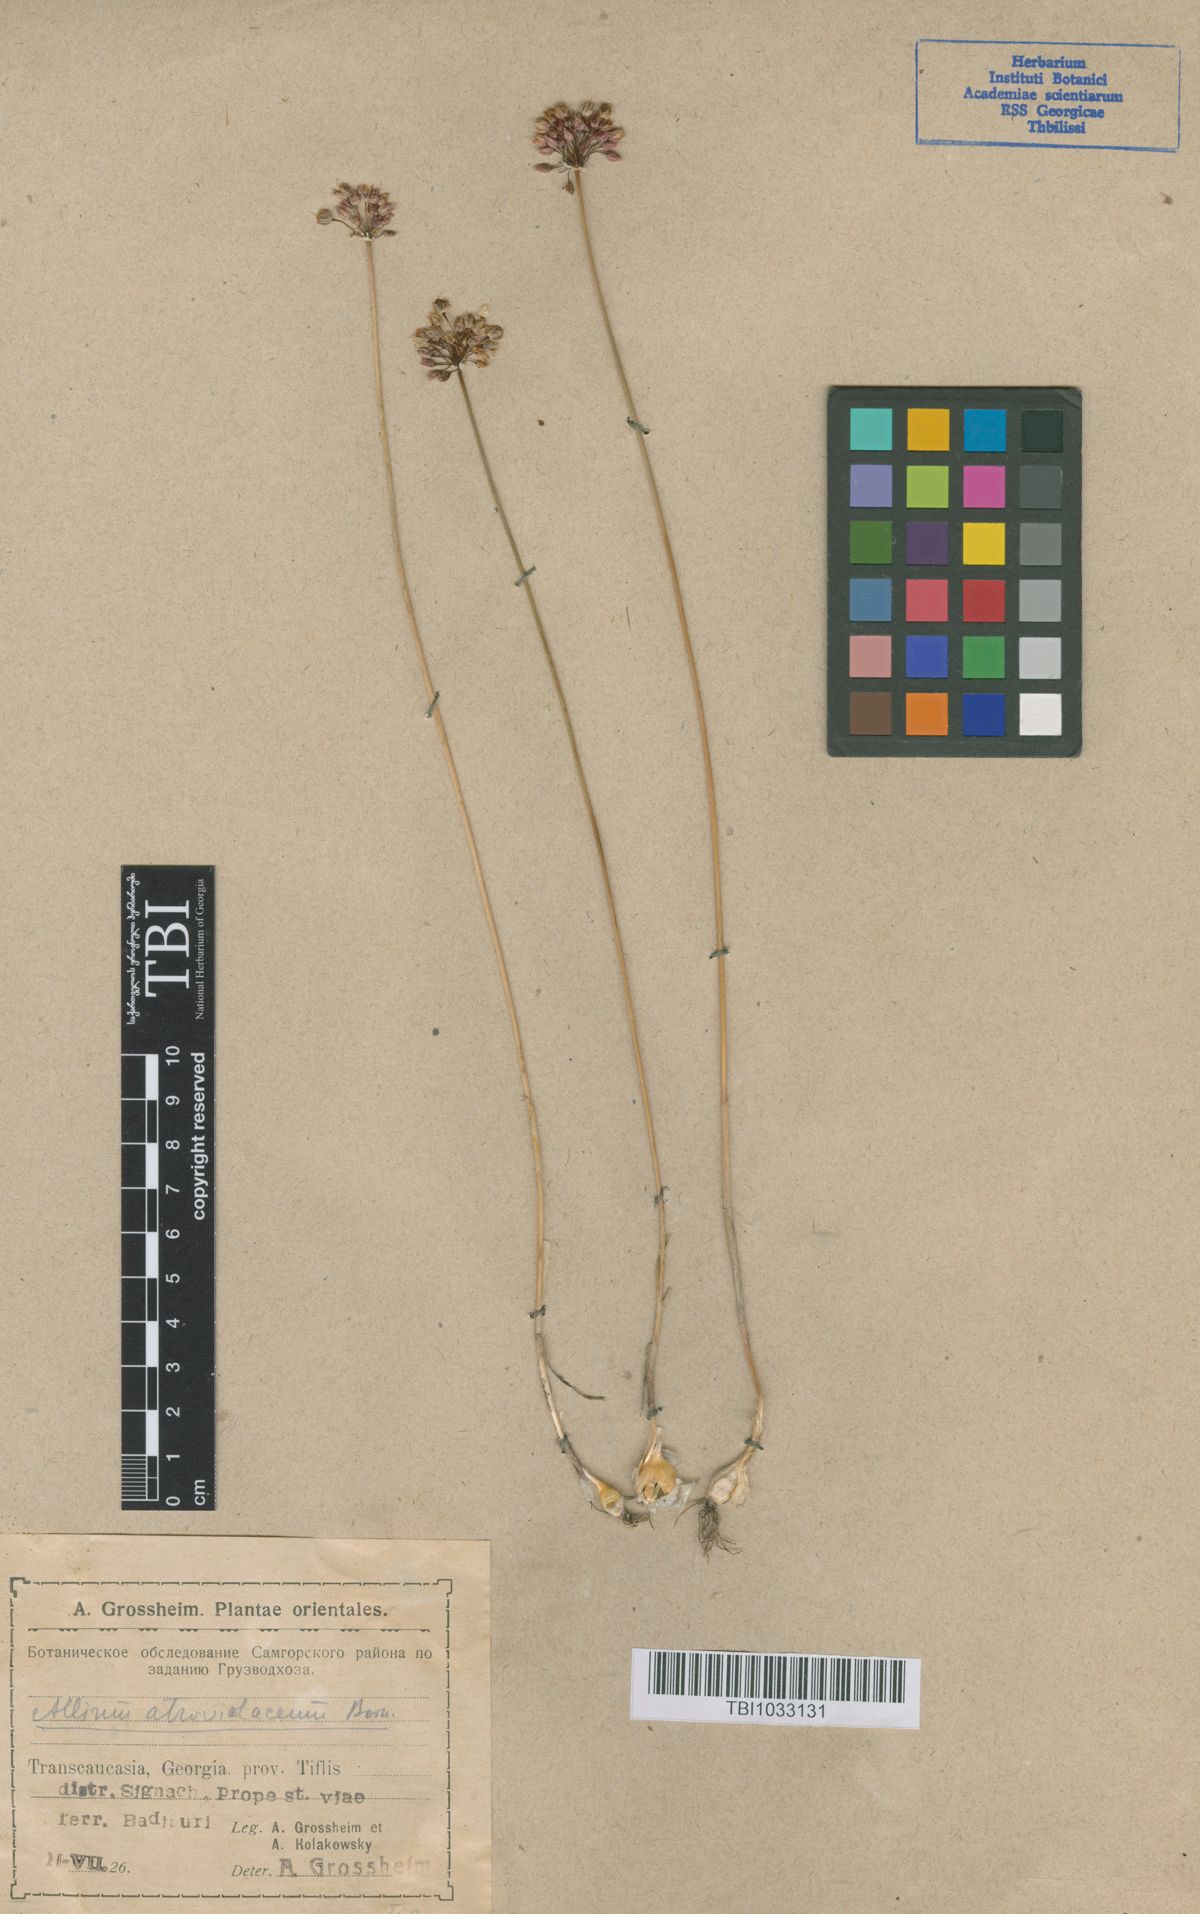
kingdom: Plantae
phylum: Tracheophyta
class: Liliopsida
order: Asparagales
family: Amaryllidaceae
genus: Allium
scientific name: Allium atroviolaceum
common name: Broadleaf wild leek
